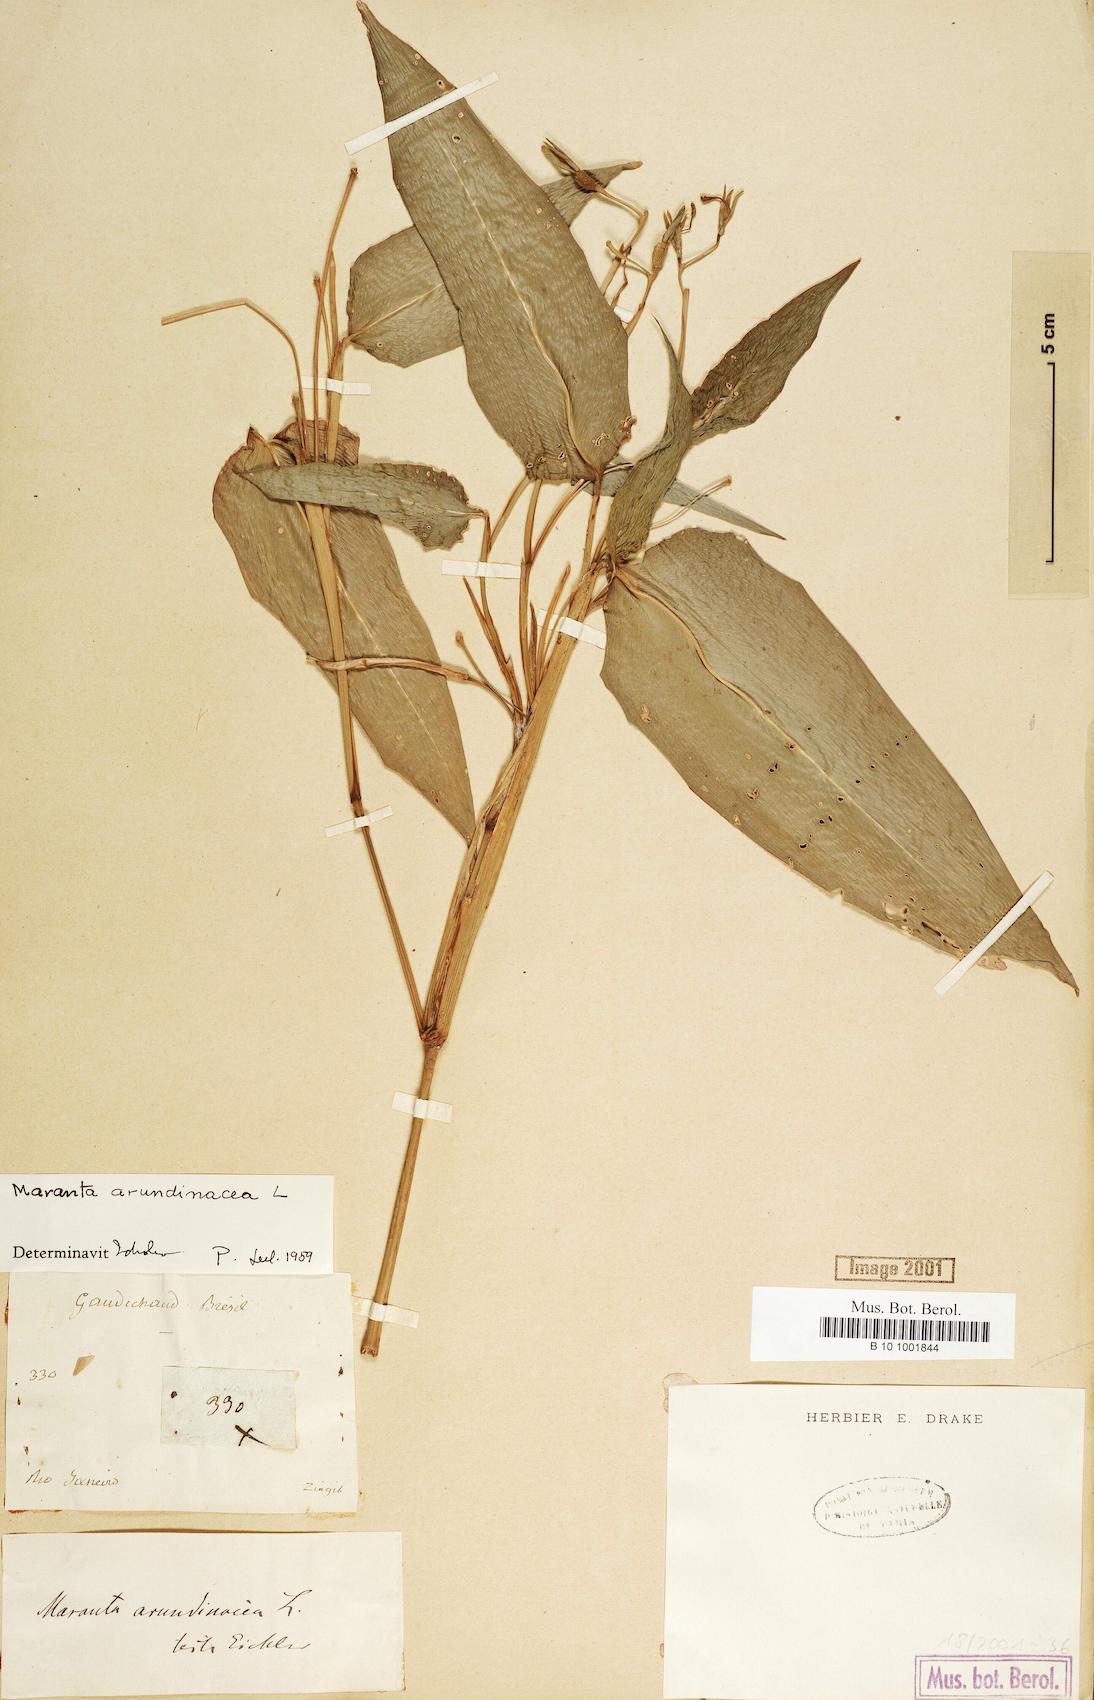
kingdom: Plantae
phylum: Tracheophyta
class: Liliopsida
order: Zingiberales
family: Marantaceae
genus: Maranta
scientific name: Maranta arundinacea
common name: Arrowroot
